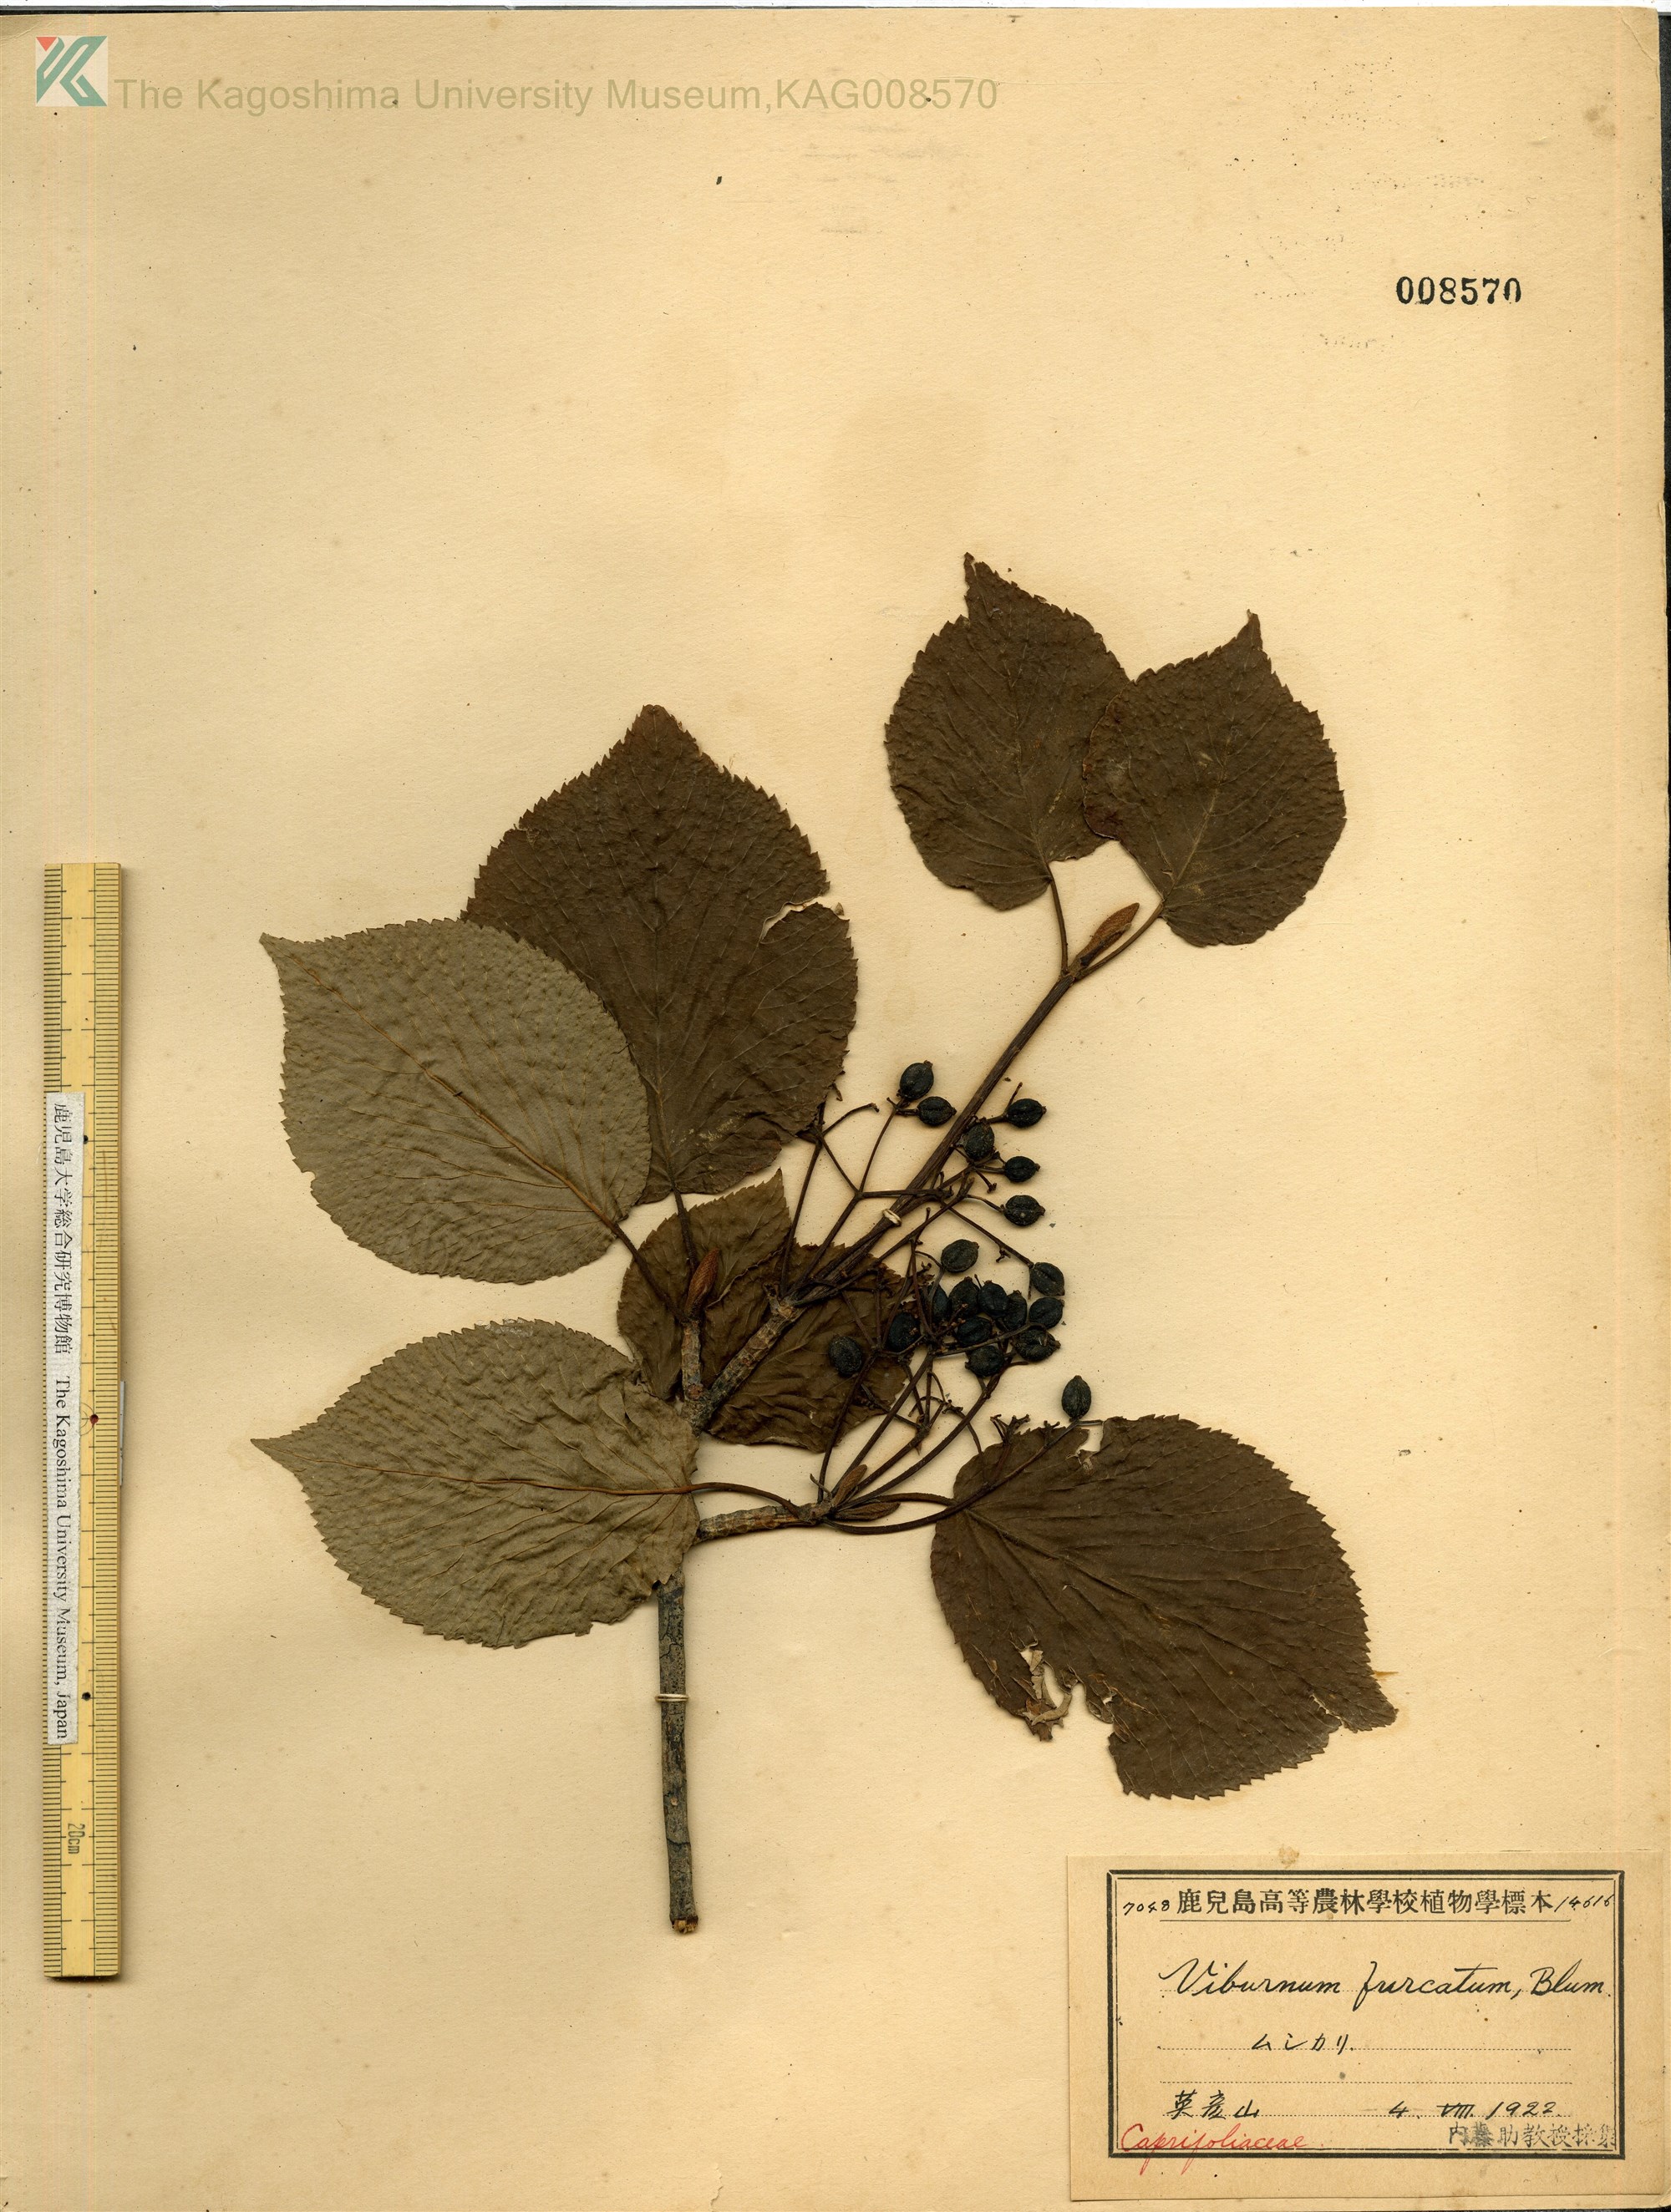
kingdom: Plantae
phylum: Tracheophyta
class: Magnoliopsida
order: Dipsacales
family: Viburnaceae
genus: Viburnum
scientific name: Viburnum furcatum
